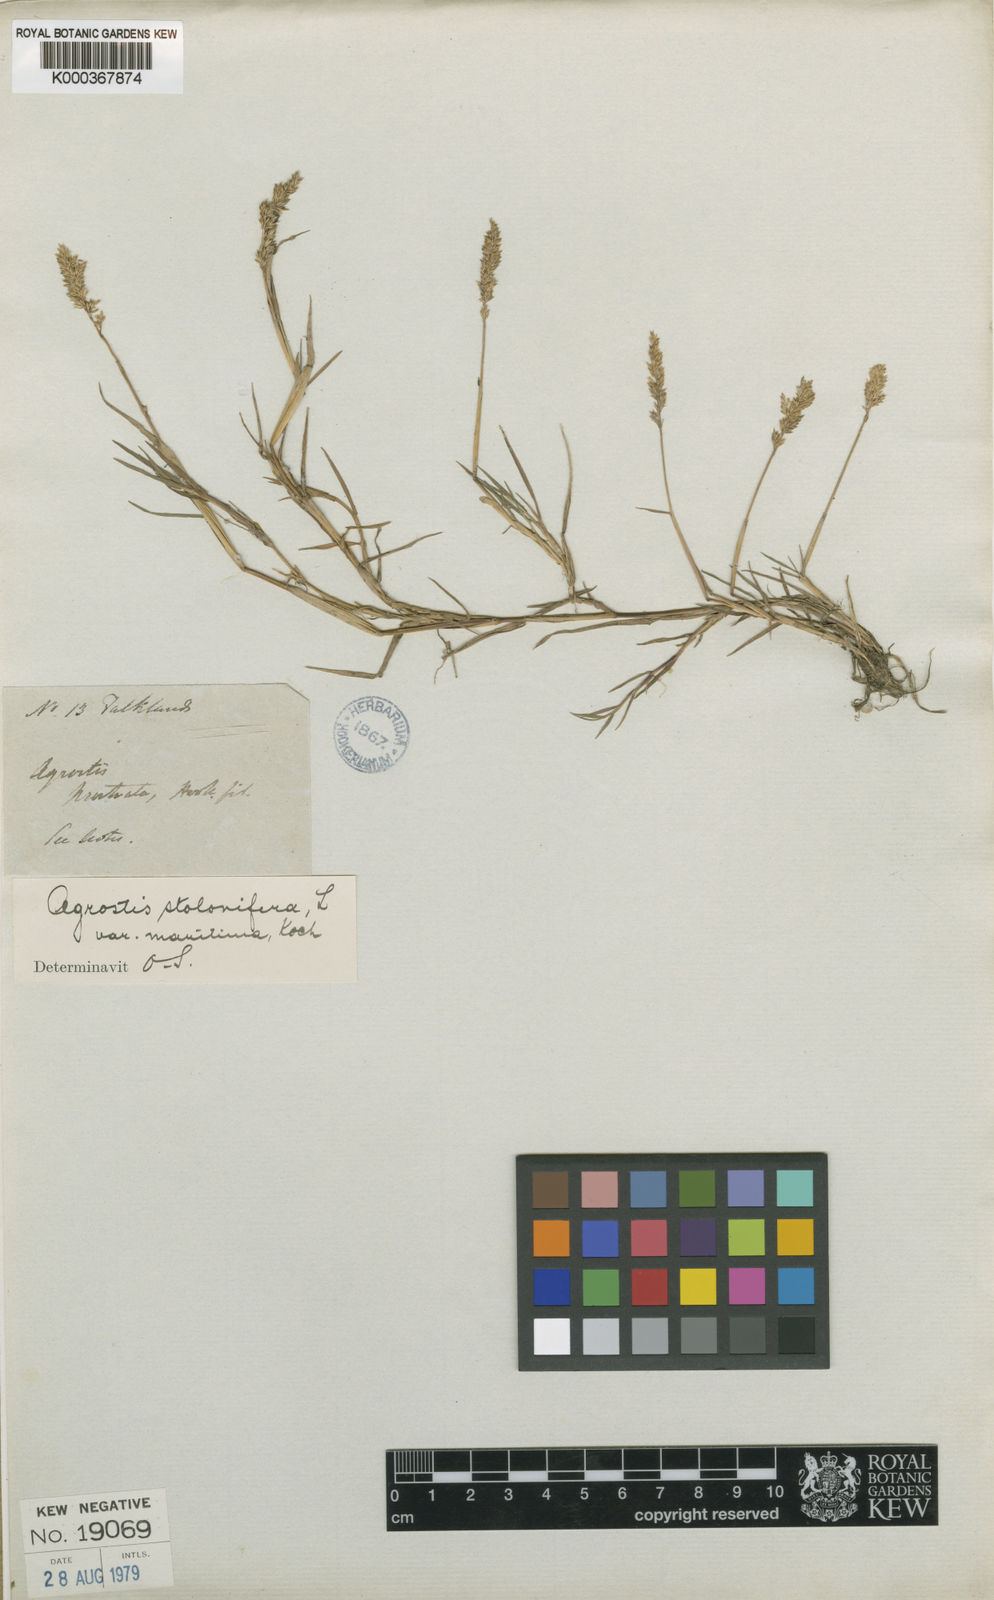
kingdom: Plantae
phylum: Tracheophyta
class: Liliopsida
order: Poales
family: Poaceae
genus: Agrostis
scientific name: Agrostis stolonifera
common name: Creeping bentgrass
